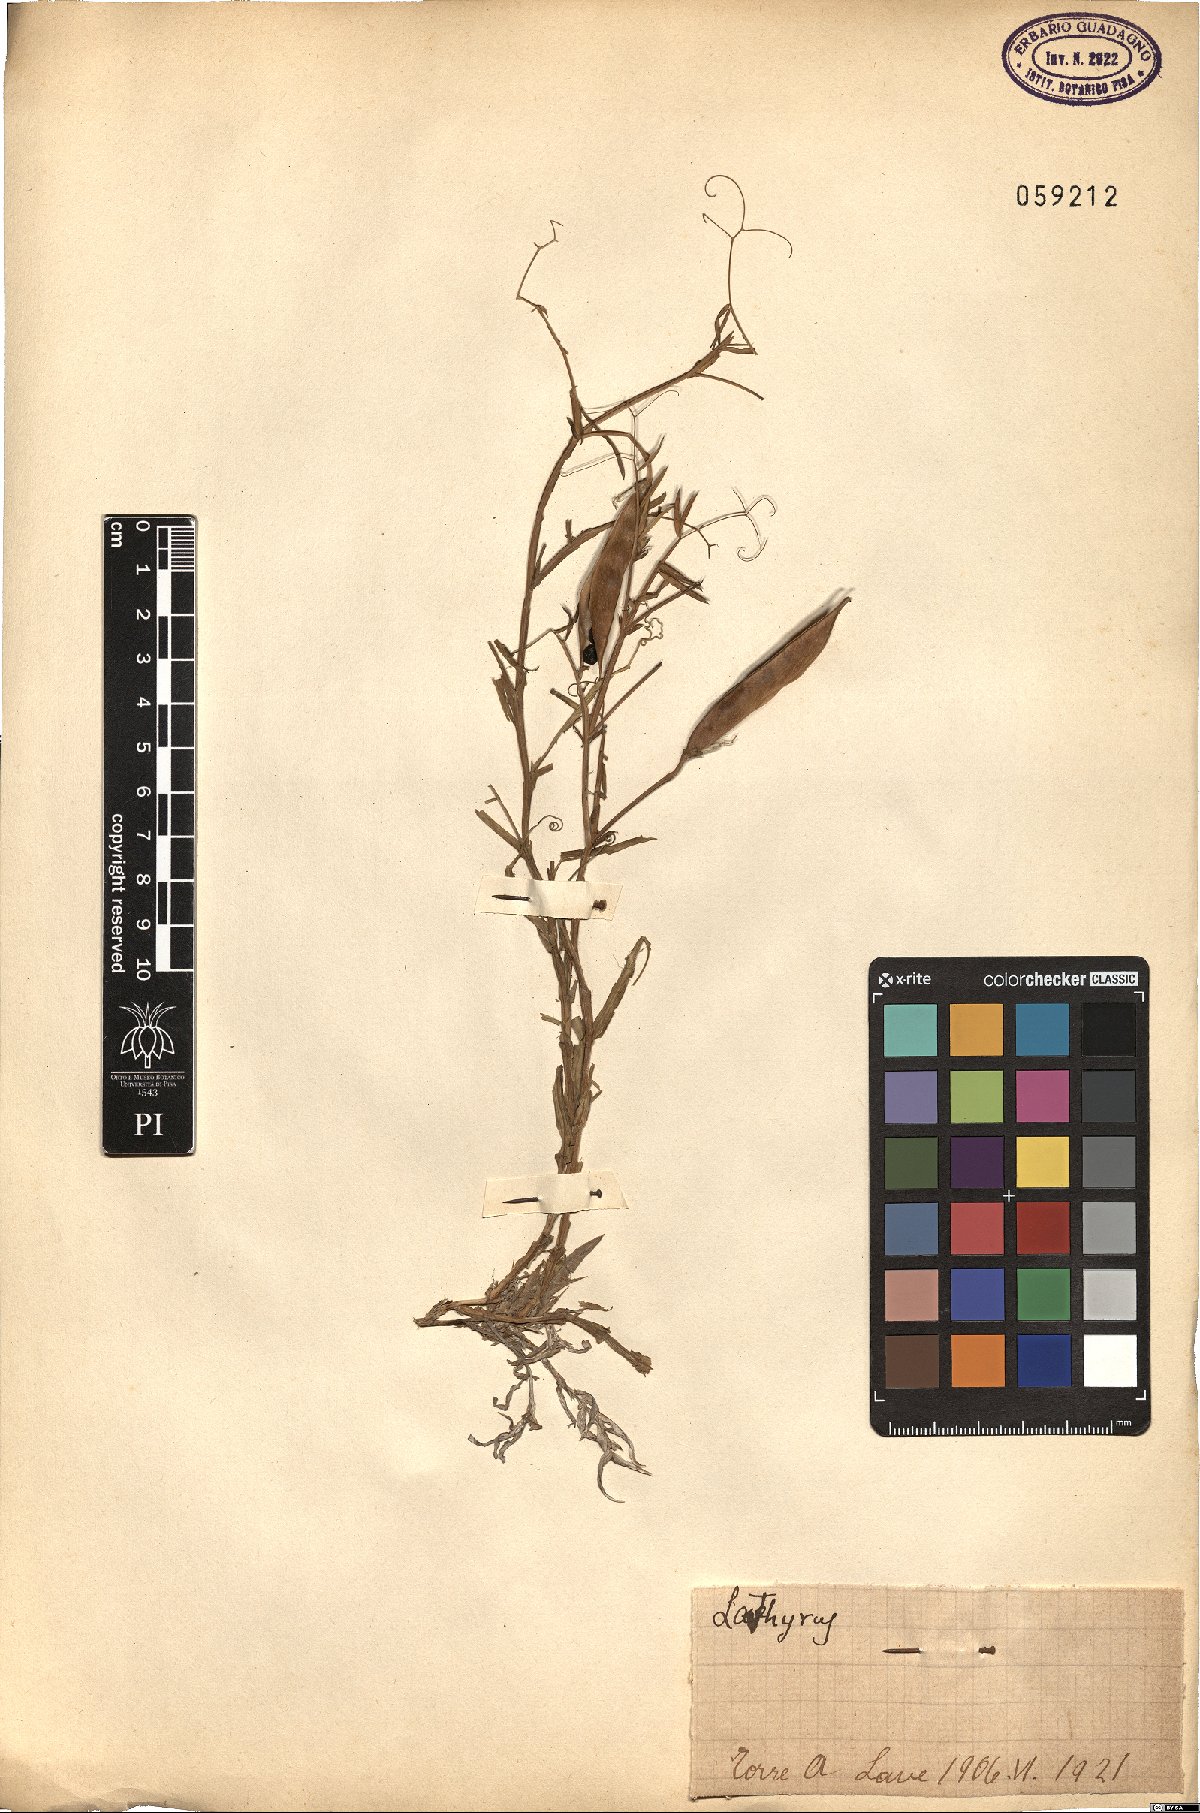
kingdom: Plantae
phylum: Tracheophyta
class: Magnoliopsida
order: Fabales
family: Fabaceae
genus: Lathyrus
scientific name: Lathyrus
